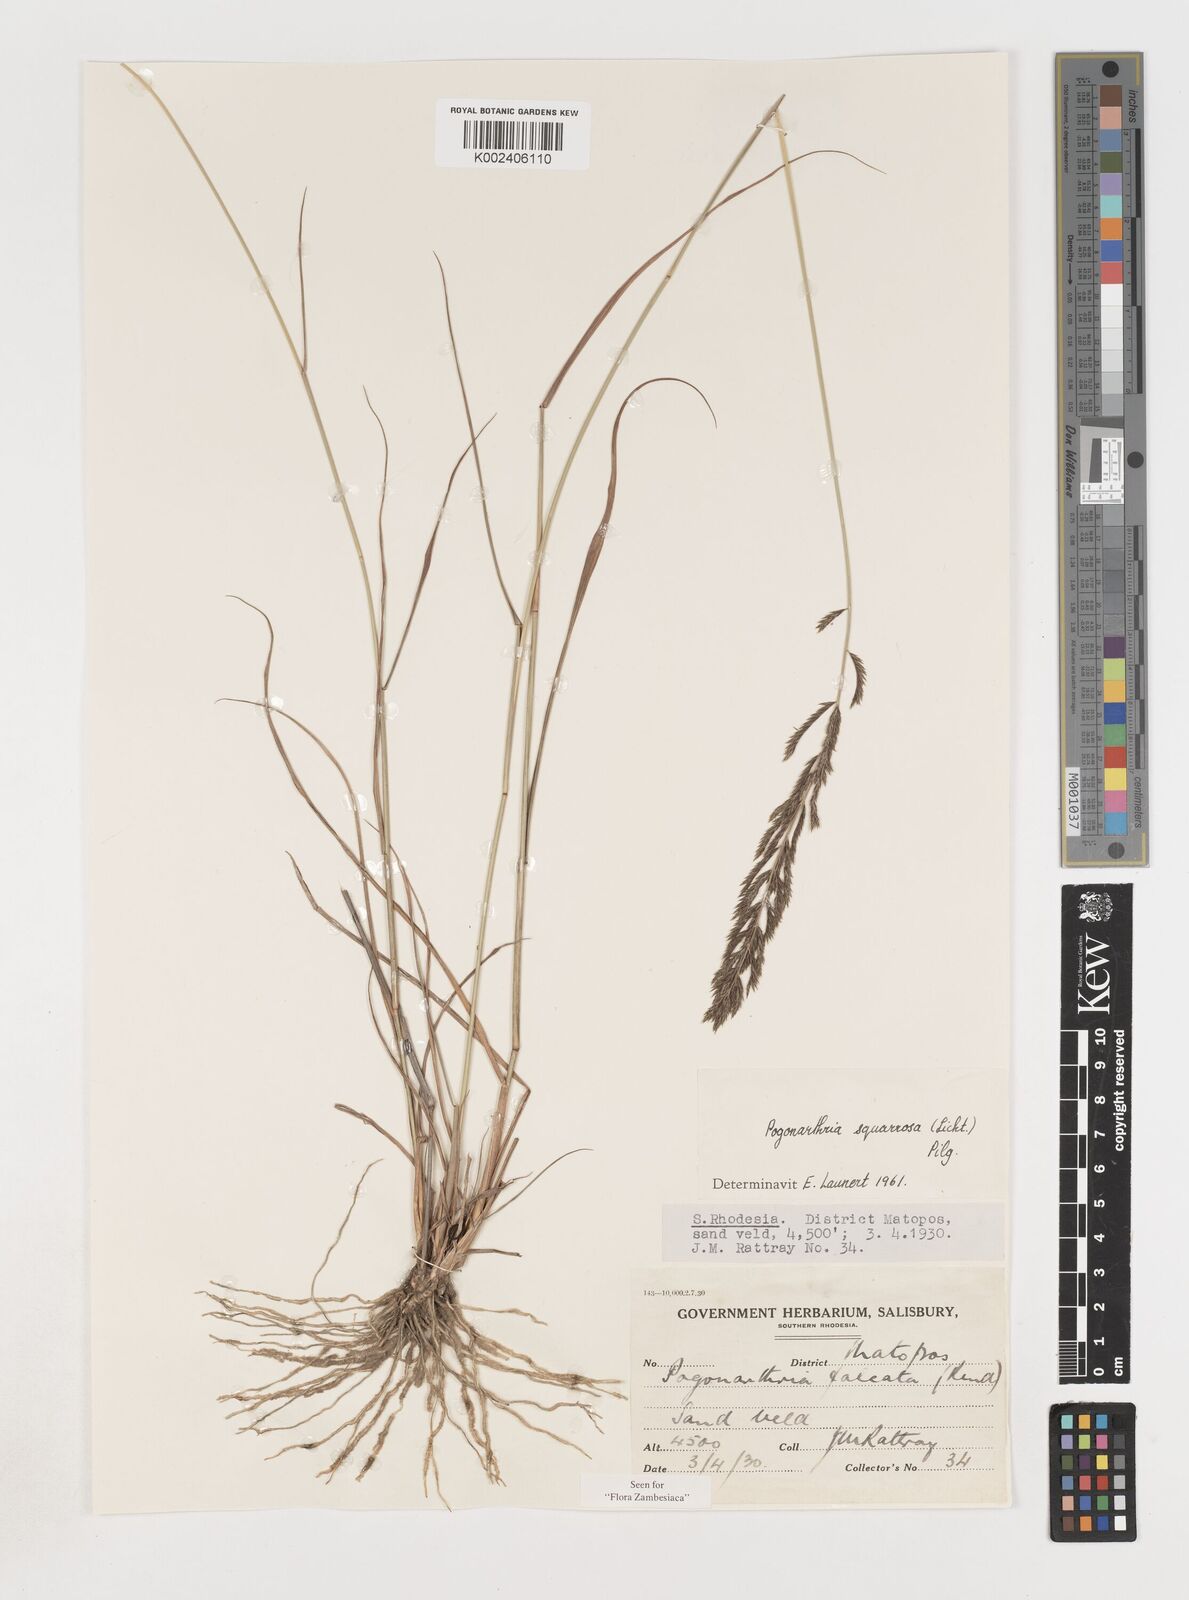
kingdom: Plantae
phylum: Tracheophyta
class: Liliopsida
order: Poales
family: Poaceae
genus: Pogonarthria
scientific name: Pogonarthria squarrosa
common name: Grass
